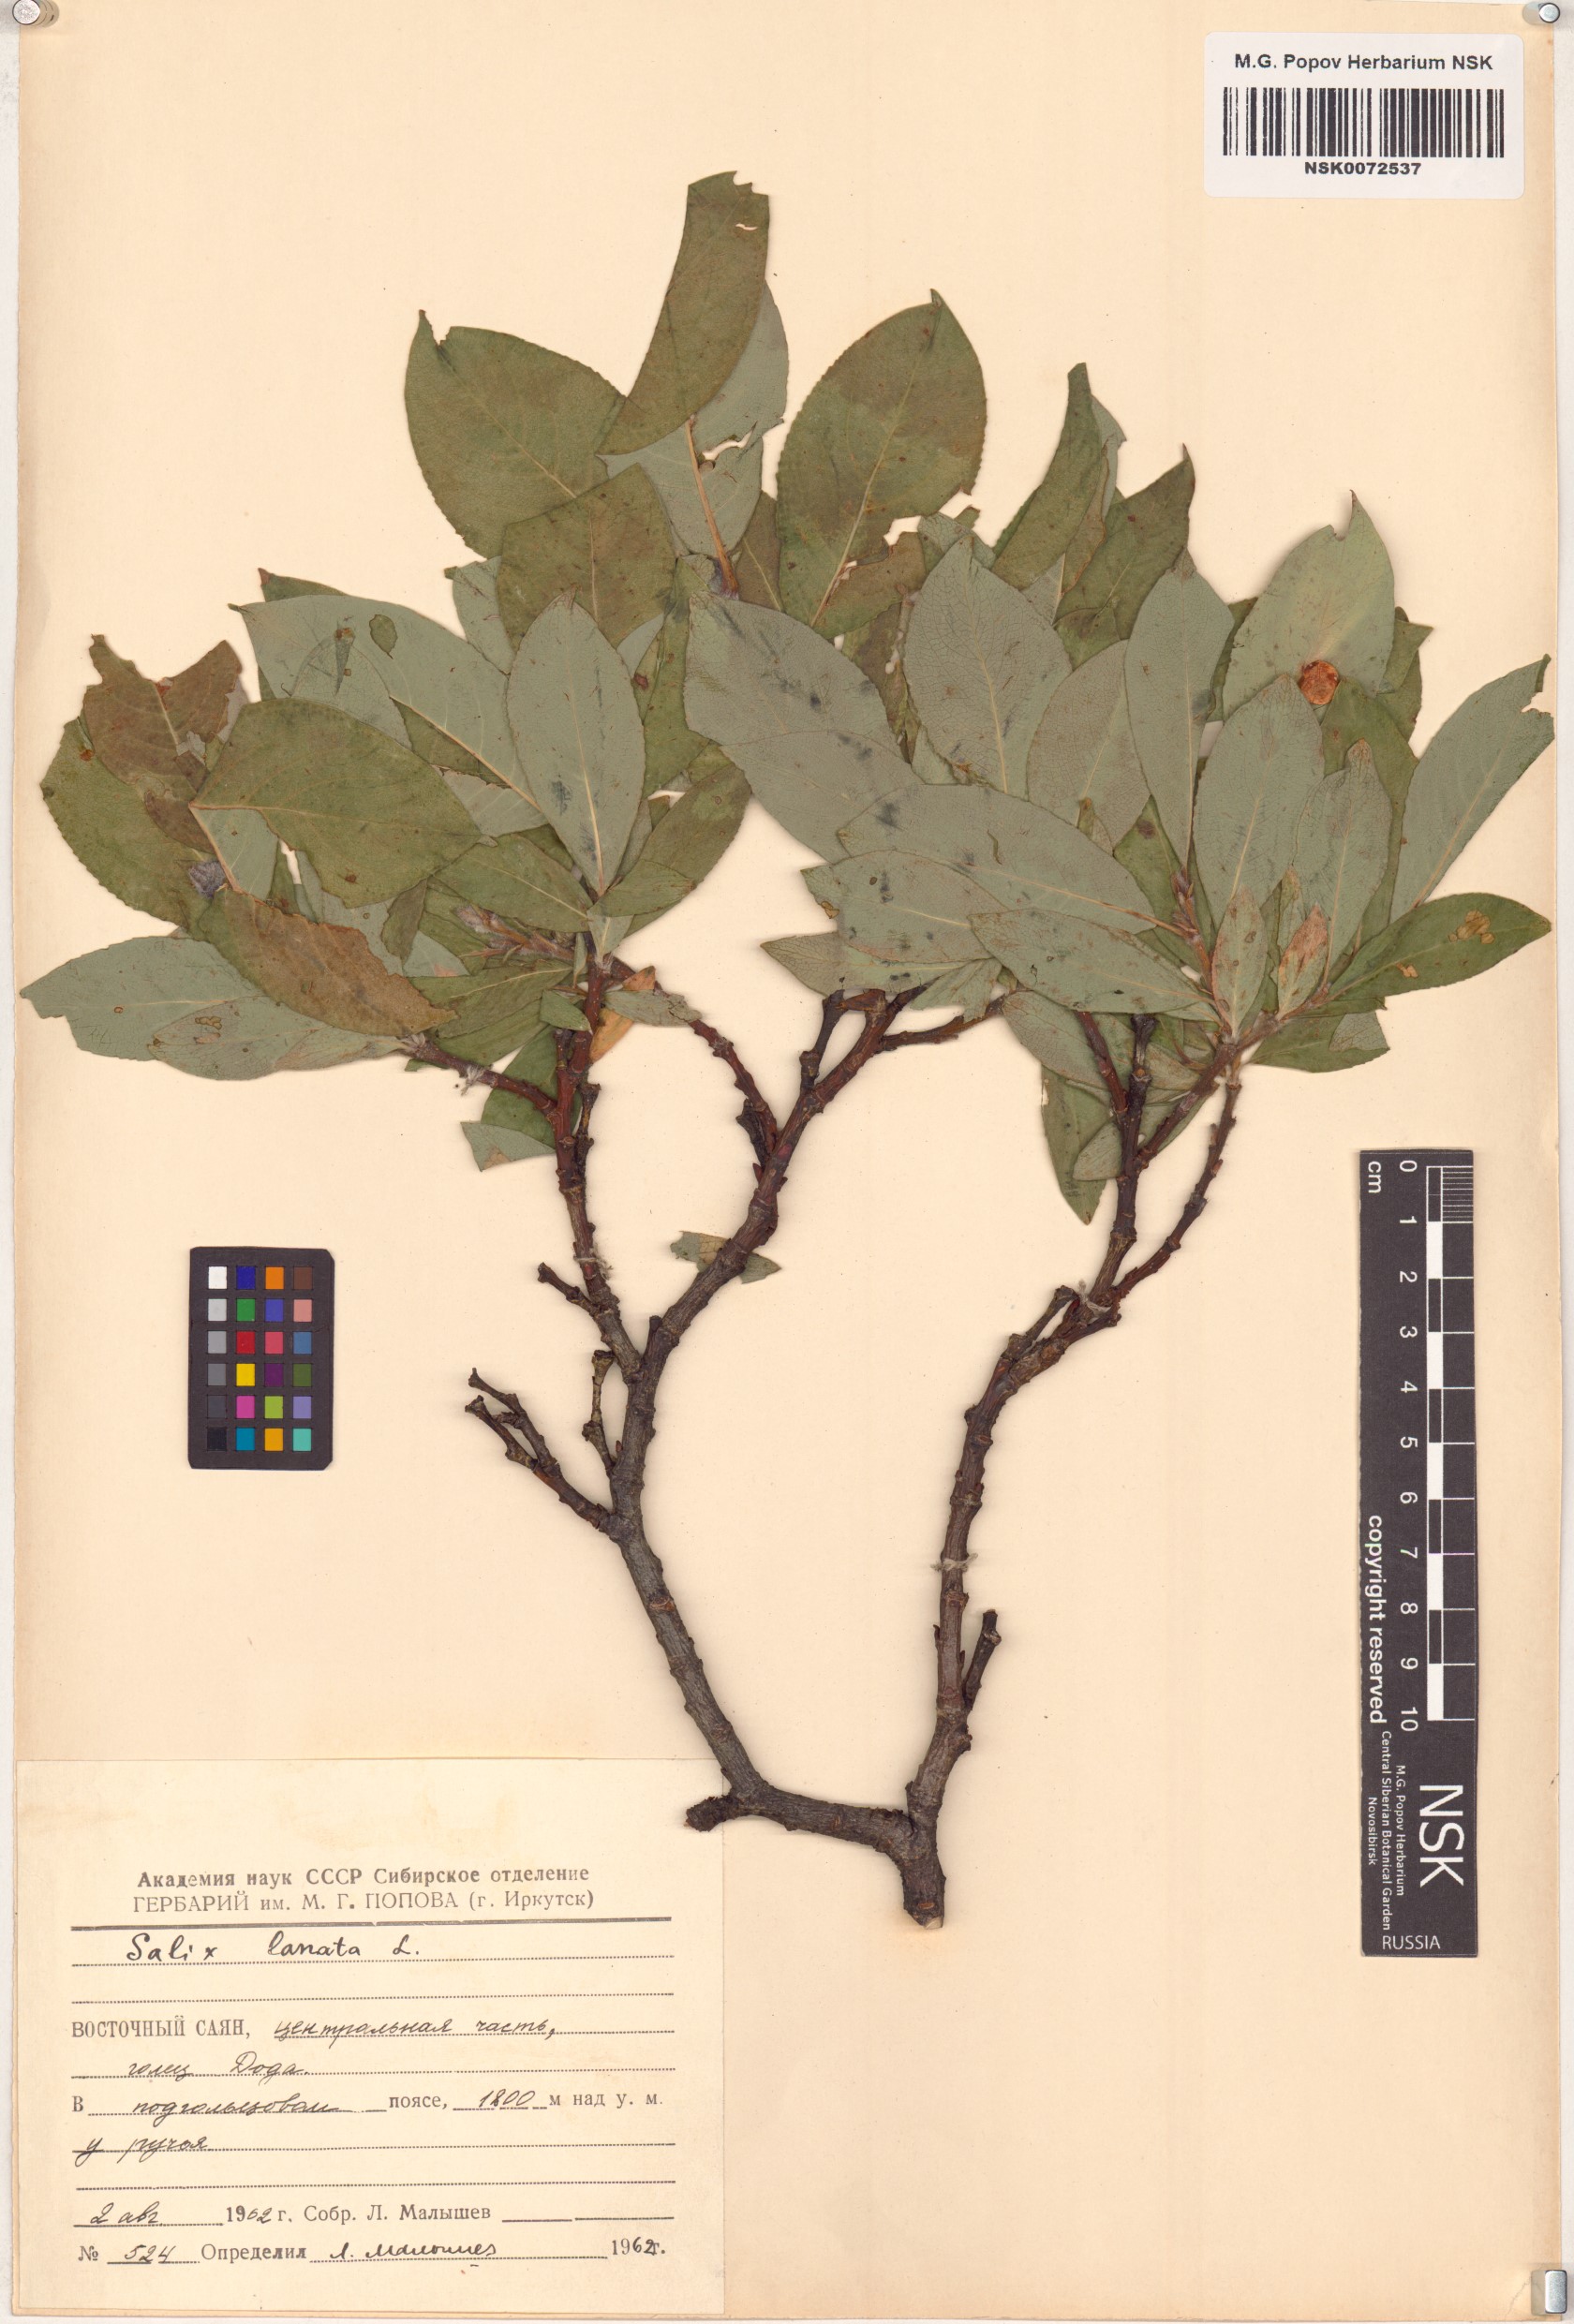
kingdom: Plantae
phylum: Tracheophyta
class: Magnoliopsida
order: Malpighiales
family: Salicaceae
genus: Salix
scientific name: Salix lanata
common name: Woolly willow
